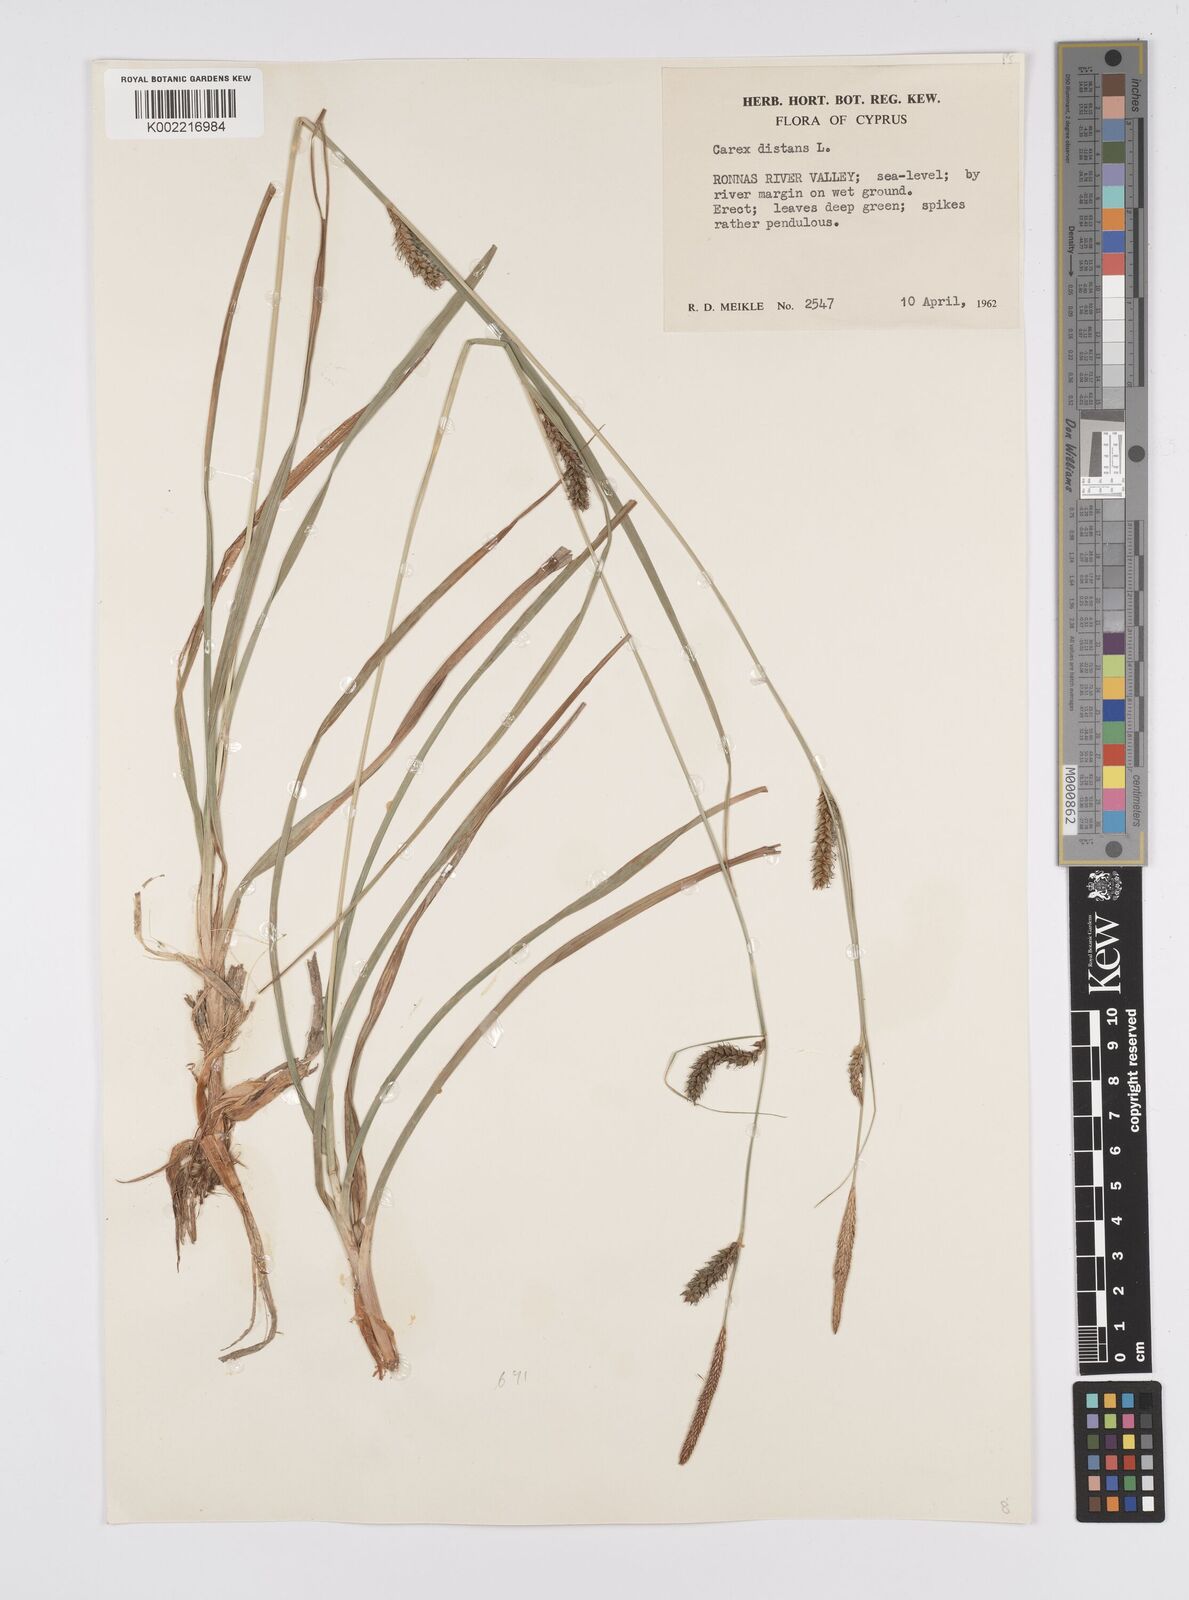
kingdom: Plantae
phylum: Tracheophyta
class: Liliopsida
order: Poales
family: Cyperaceae
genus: Carex
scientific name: Carex distans
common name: Distant sedge
